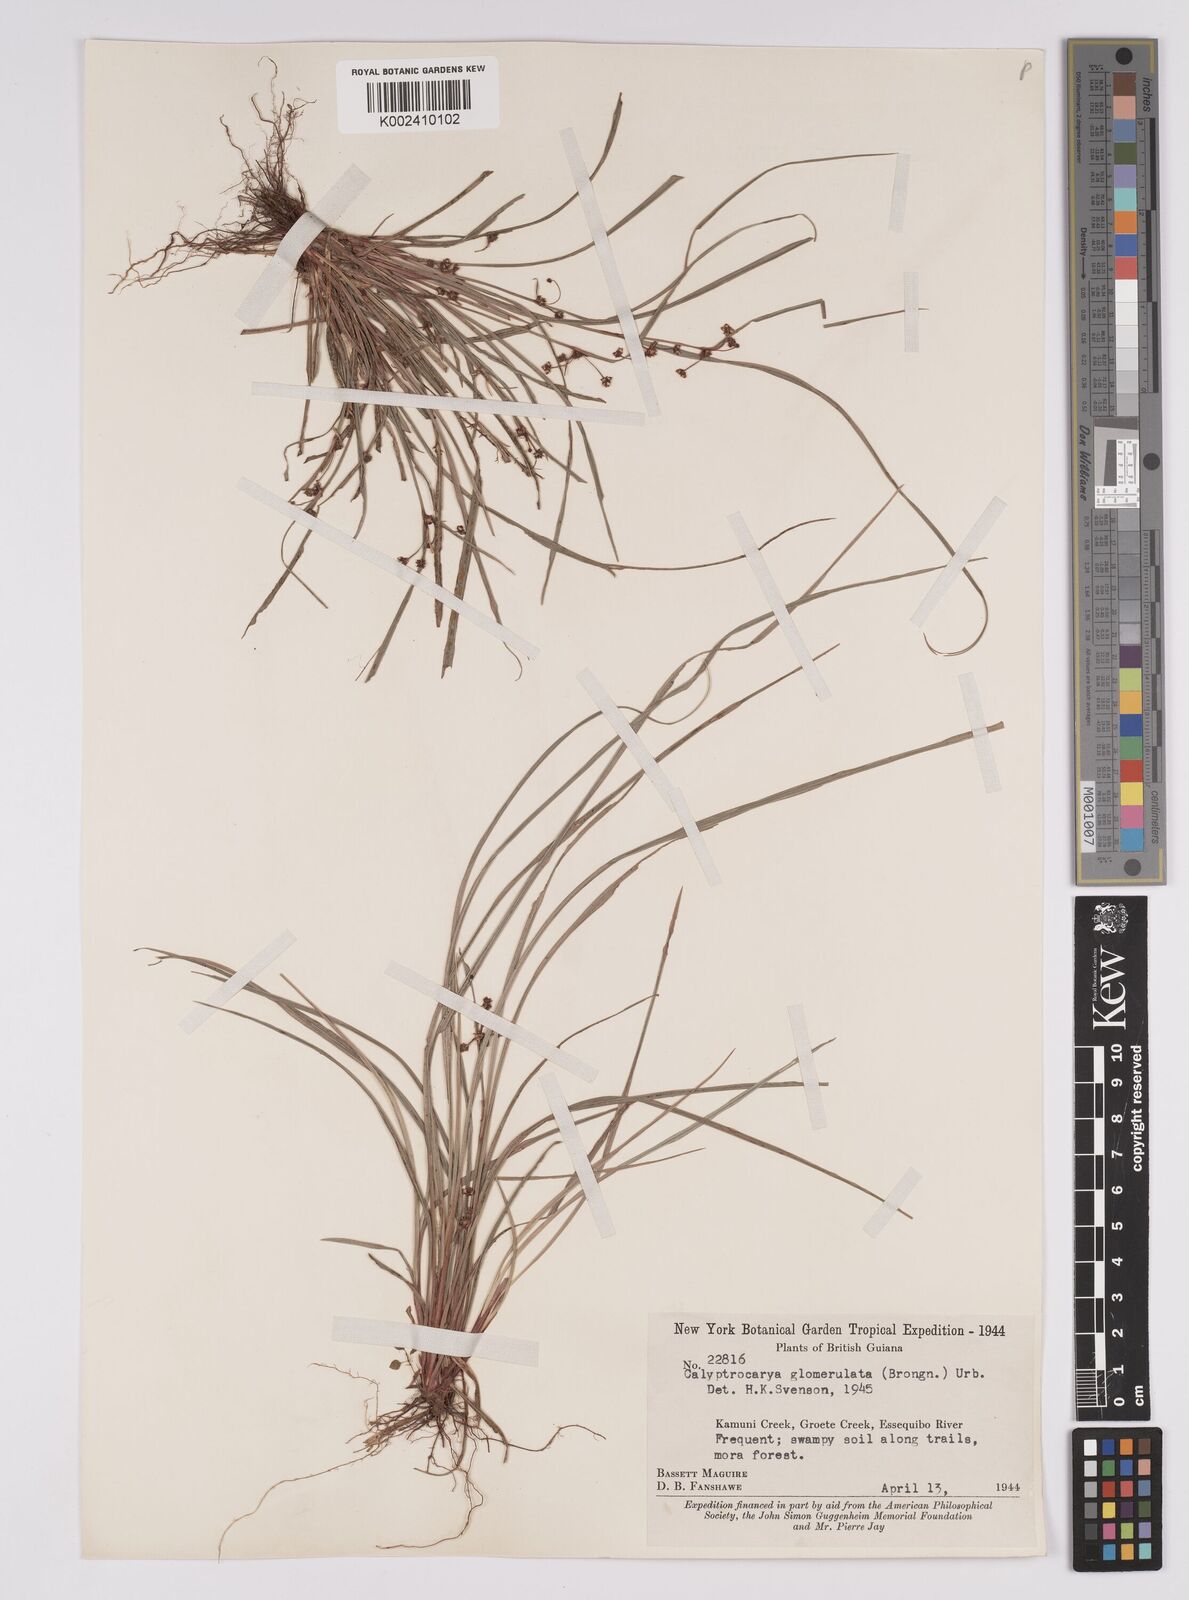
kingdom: Plantae
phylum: Tracheophyta
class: Liliopsida
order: Poales
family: Cyperaceae
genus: Calyptrocarya
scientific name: Calyptrocarya glomerulata
